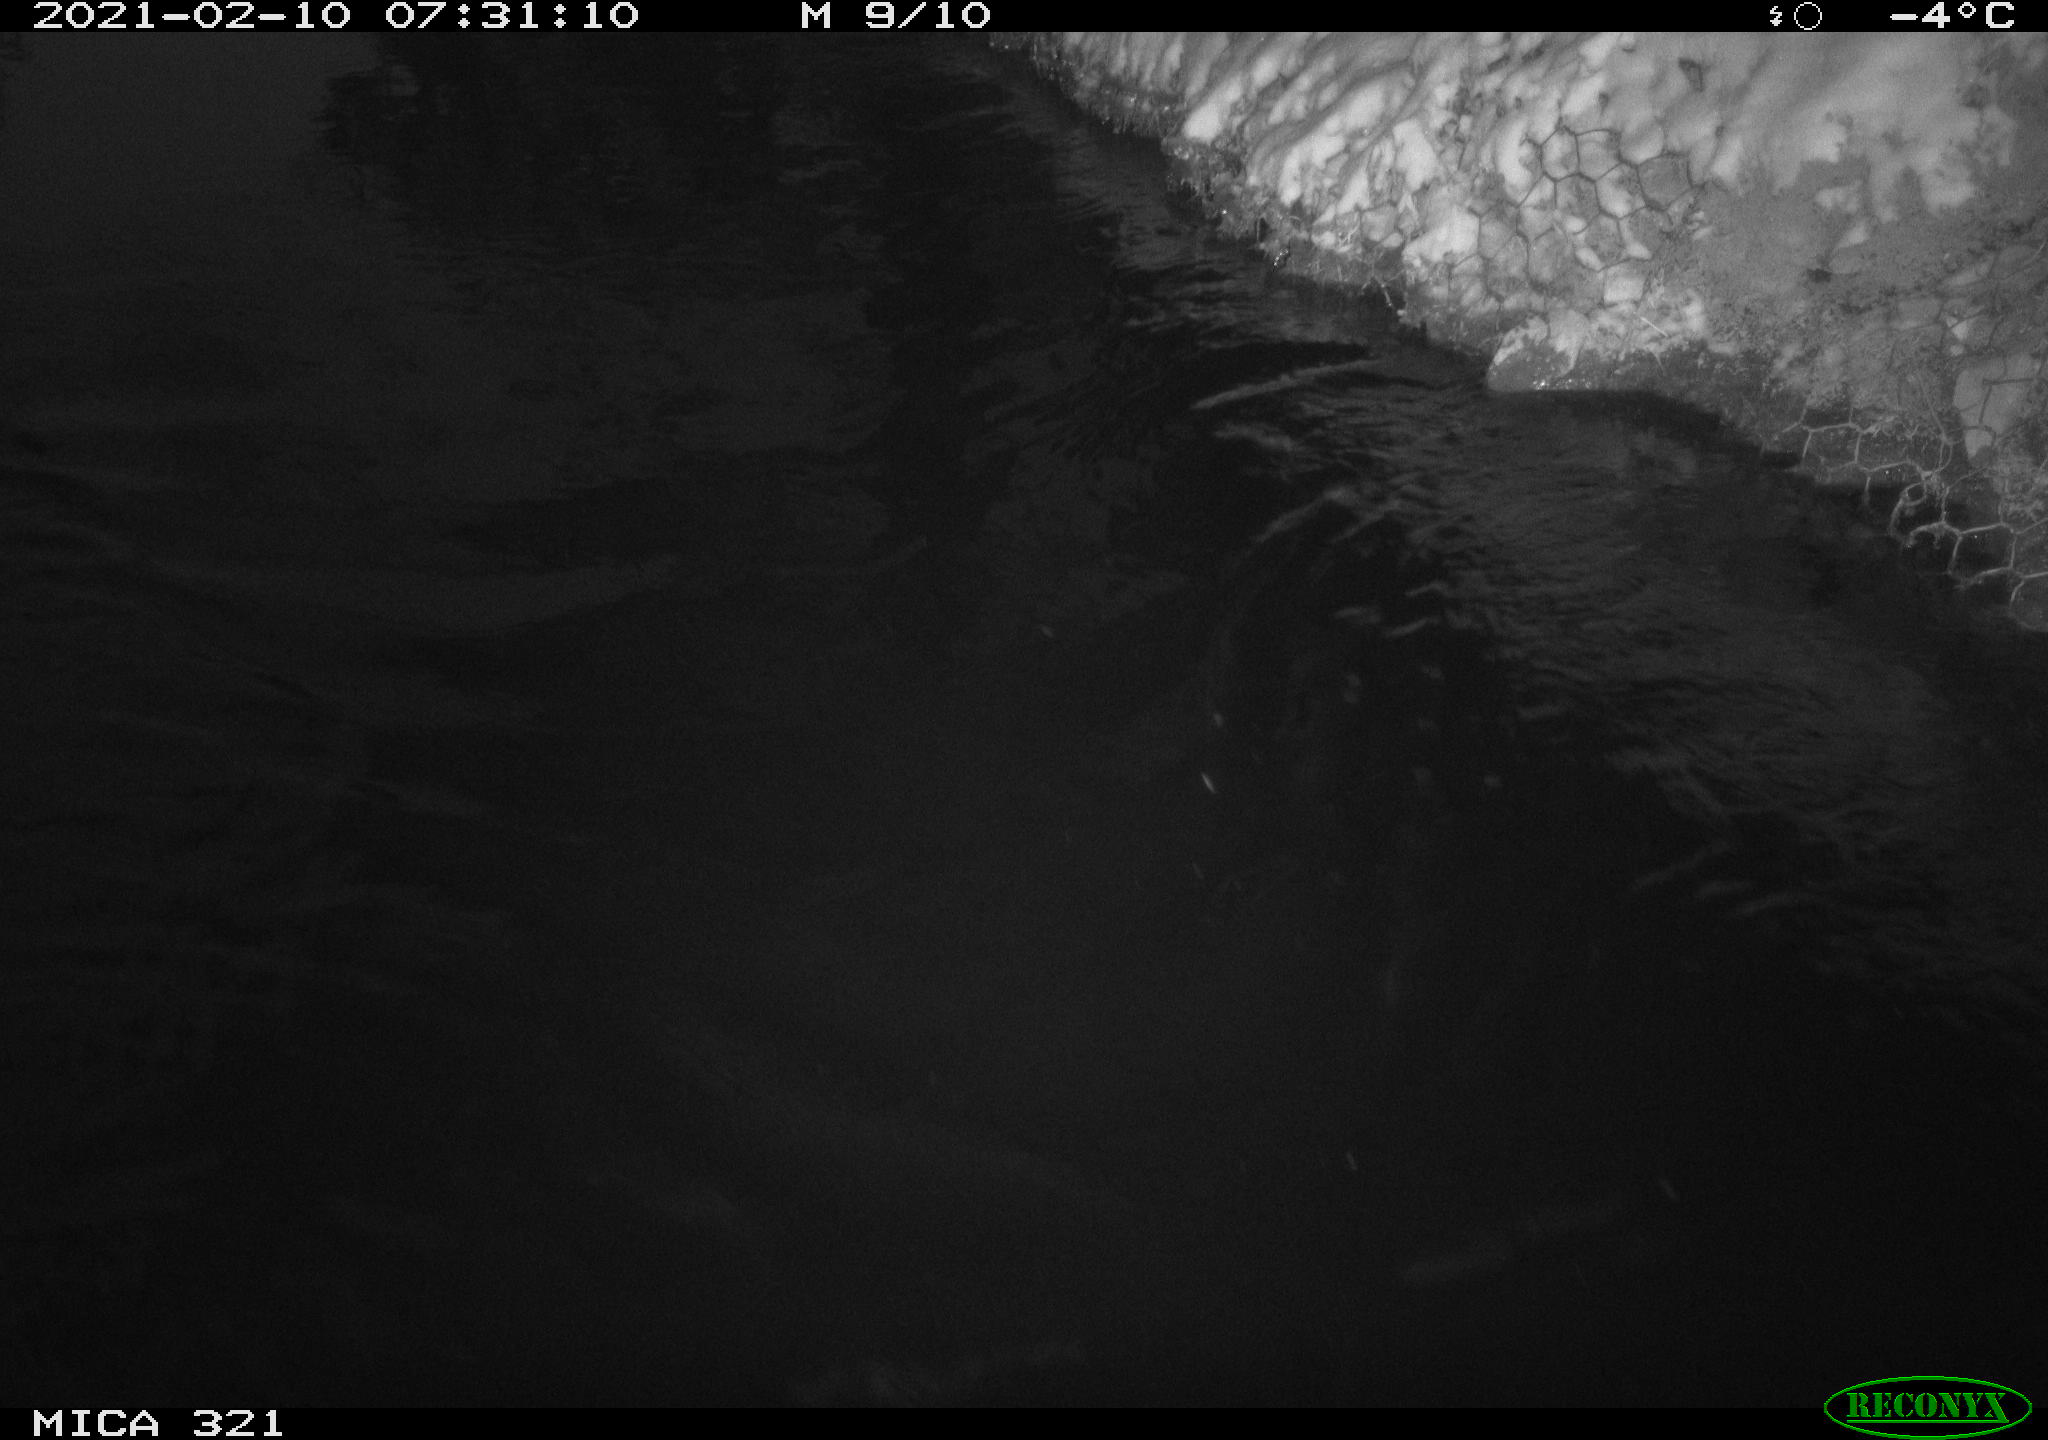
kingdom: Animalia
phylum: Chordata
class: Aves
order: Anseriformes
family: Anatidae
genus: Anas
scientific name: Anas platyrhynchos
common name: Mallard
